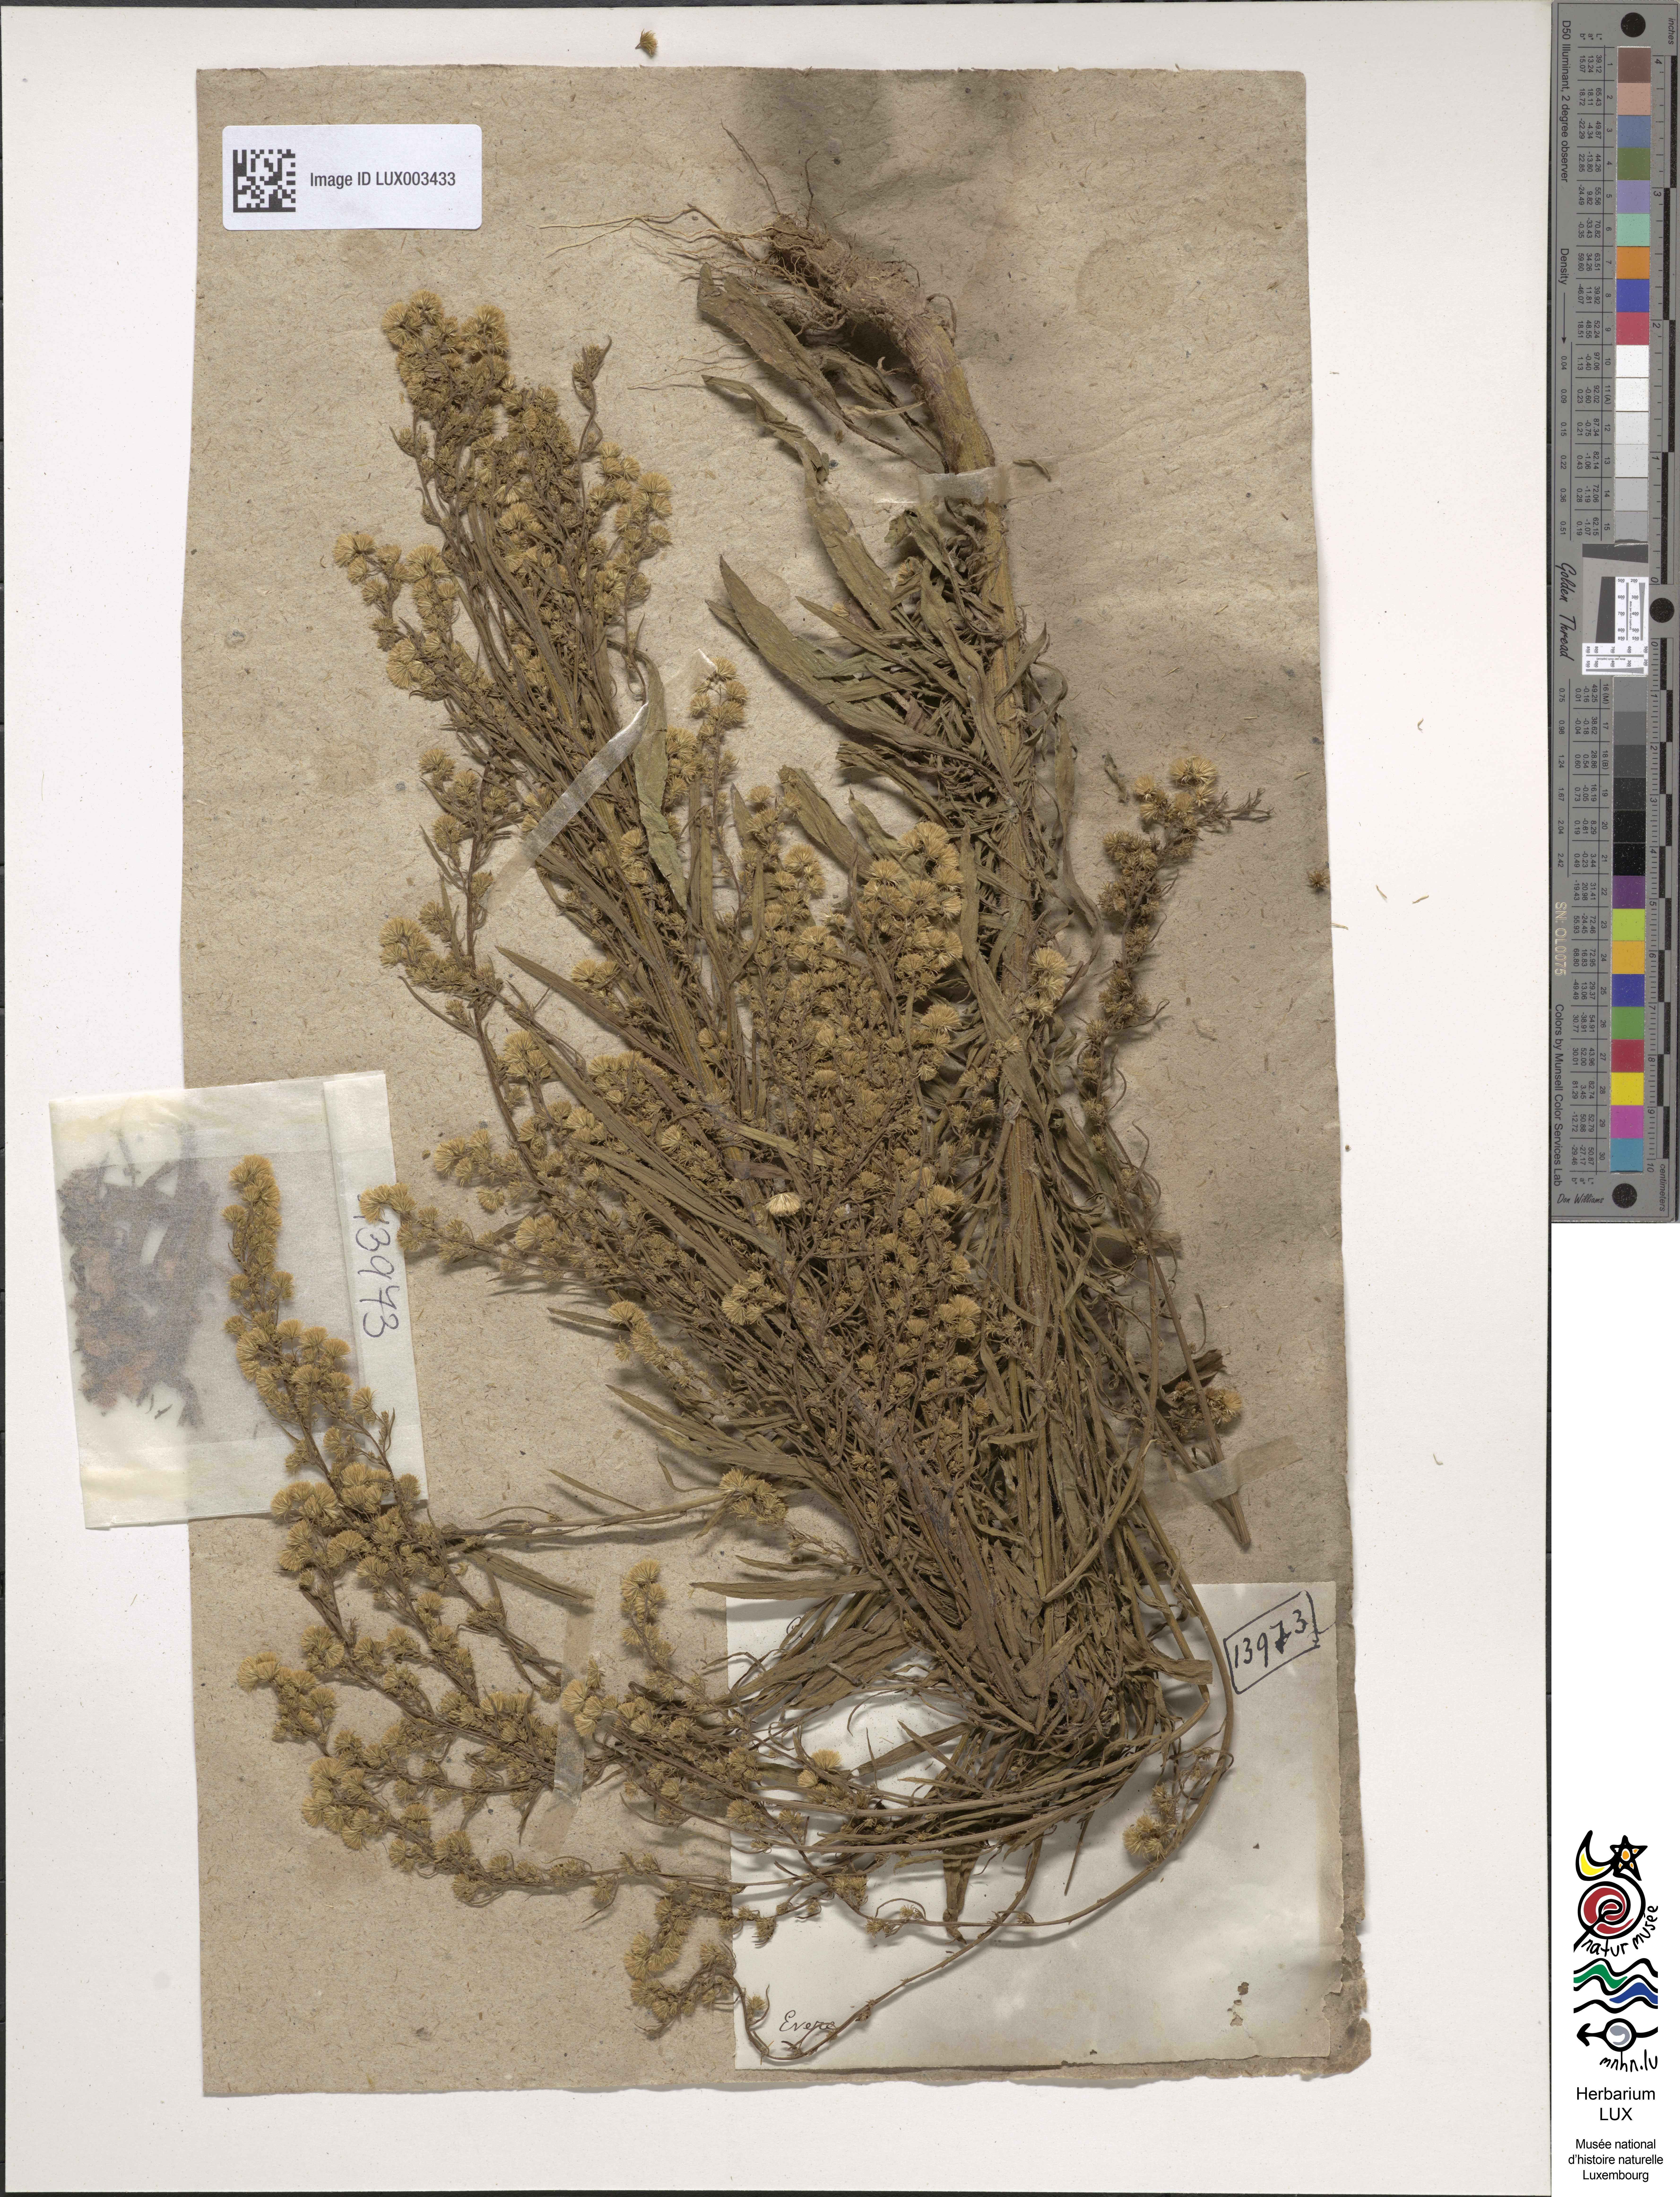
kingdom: Plantae
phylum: Tracheophyta
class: Magnoliopsida
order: Asterales
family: Asteraceae
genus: Erigeron
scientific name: Erigeron canadensis
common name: Canadian fleabane
